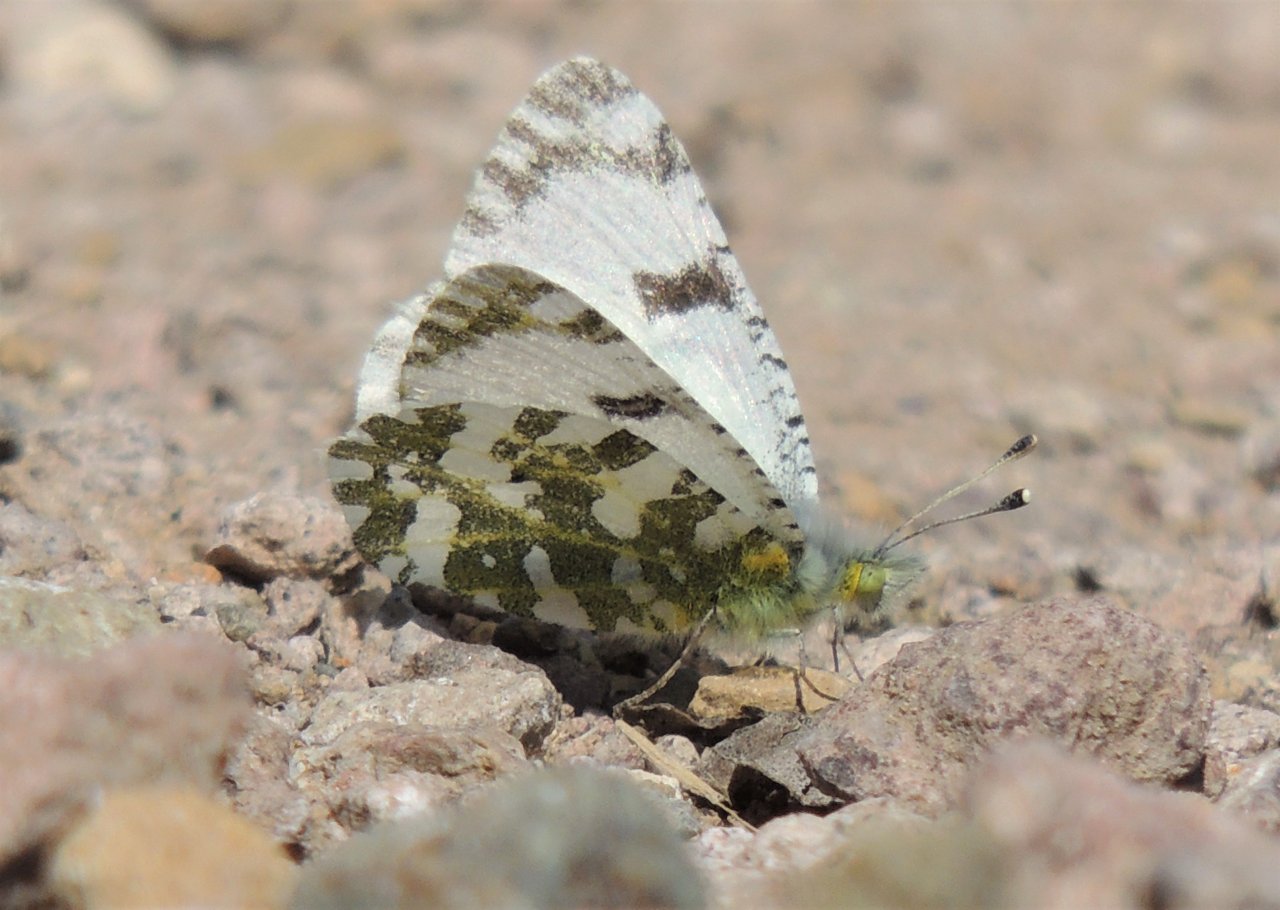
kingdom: Animalia
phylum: Arthropoda
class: Insecta
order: Lepidoptera
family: Pieridae
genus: Euchloe
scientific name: Euchloe lotta
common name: Desert Marble
